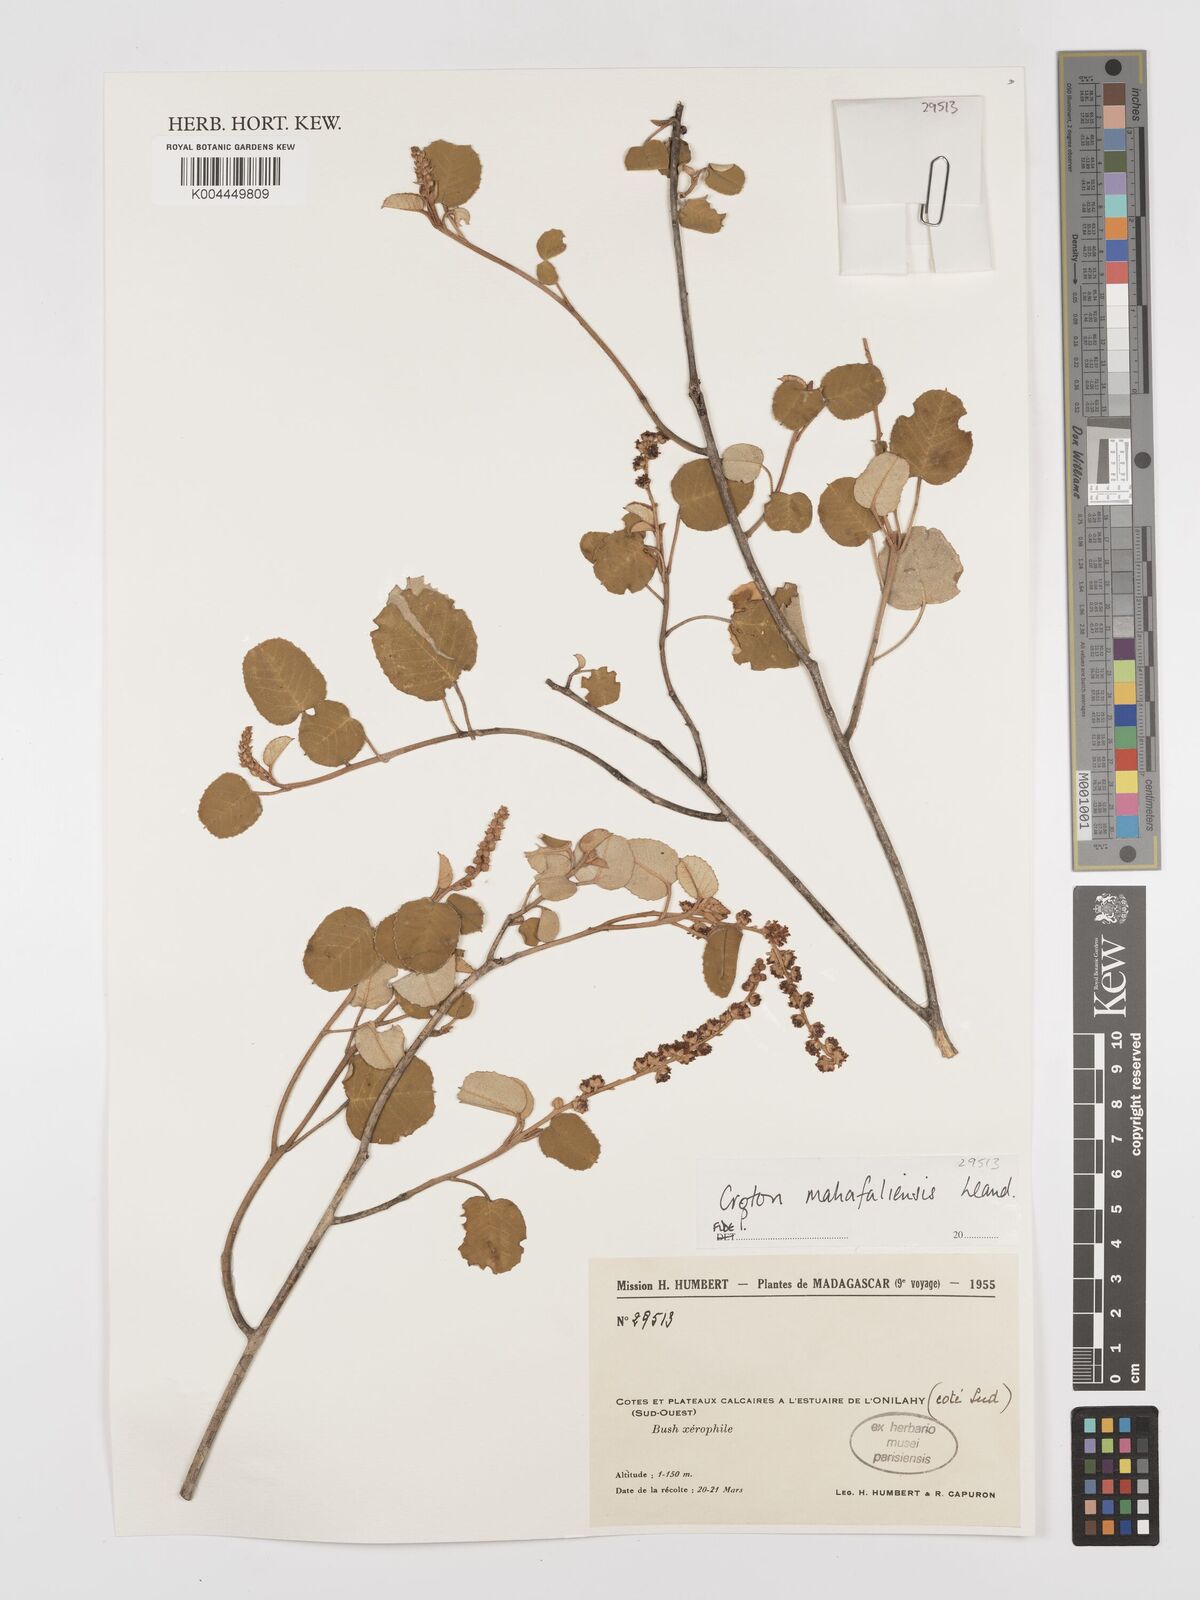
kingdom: Plantae
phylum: Tracheophyta
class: Magnoliopsida
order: Malpighiales
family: Euphorbiaceae
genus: Croton
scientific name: Croton cotoneaster
